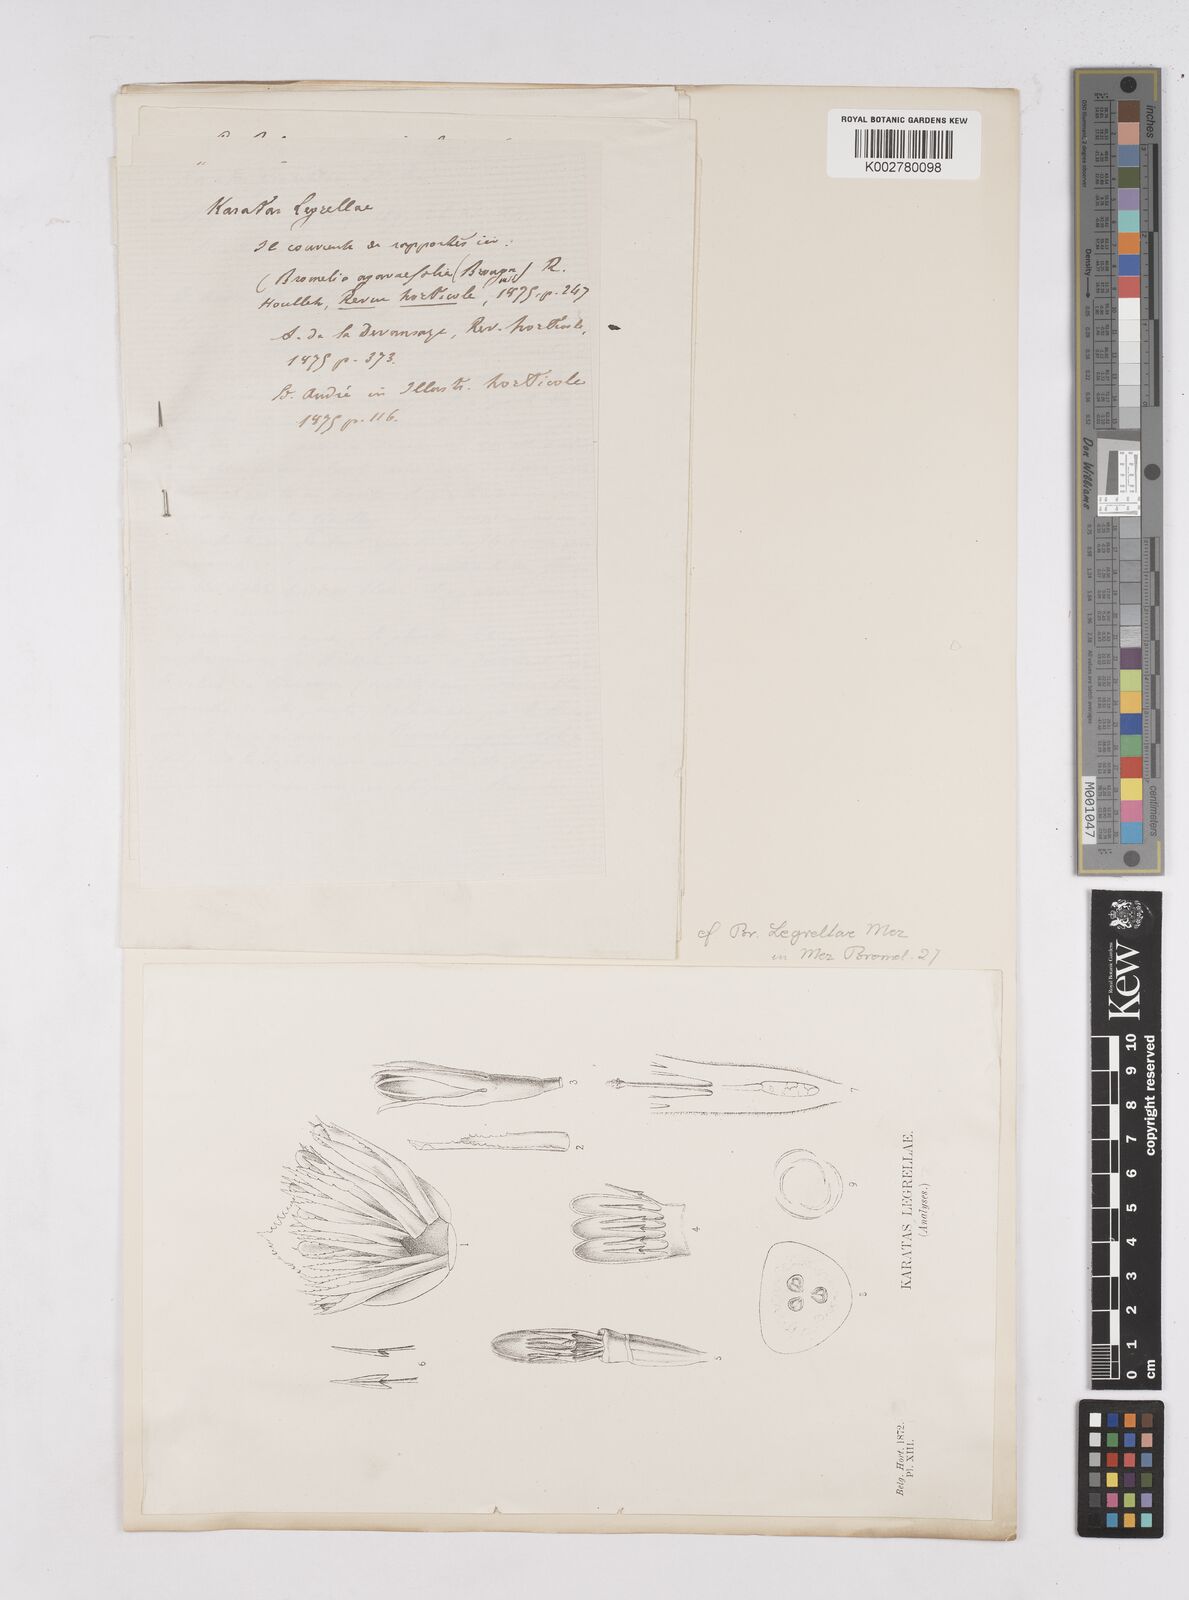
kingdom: Plantae
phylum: Tracheophyta
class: Liliopsida
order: Poales
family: Bromeliaceae
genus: Bromelia
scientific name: Bromelia legrellae
